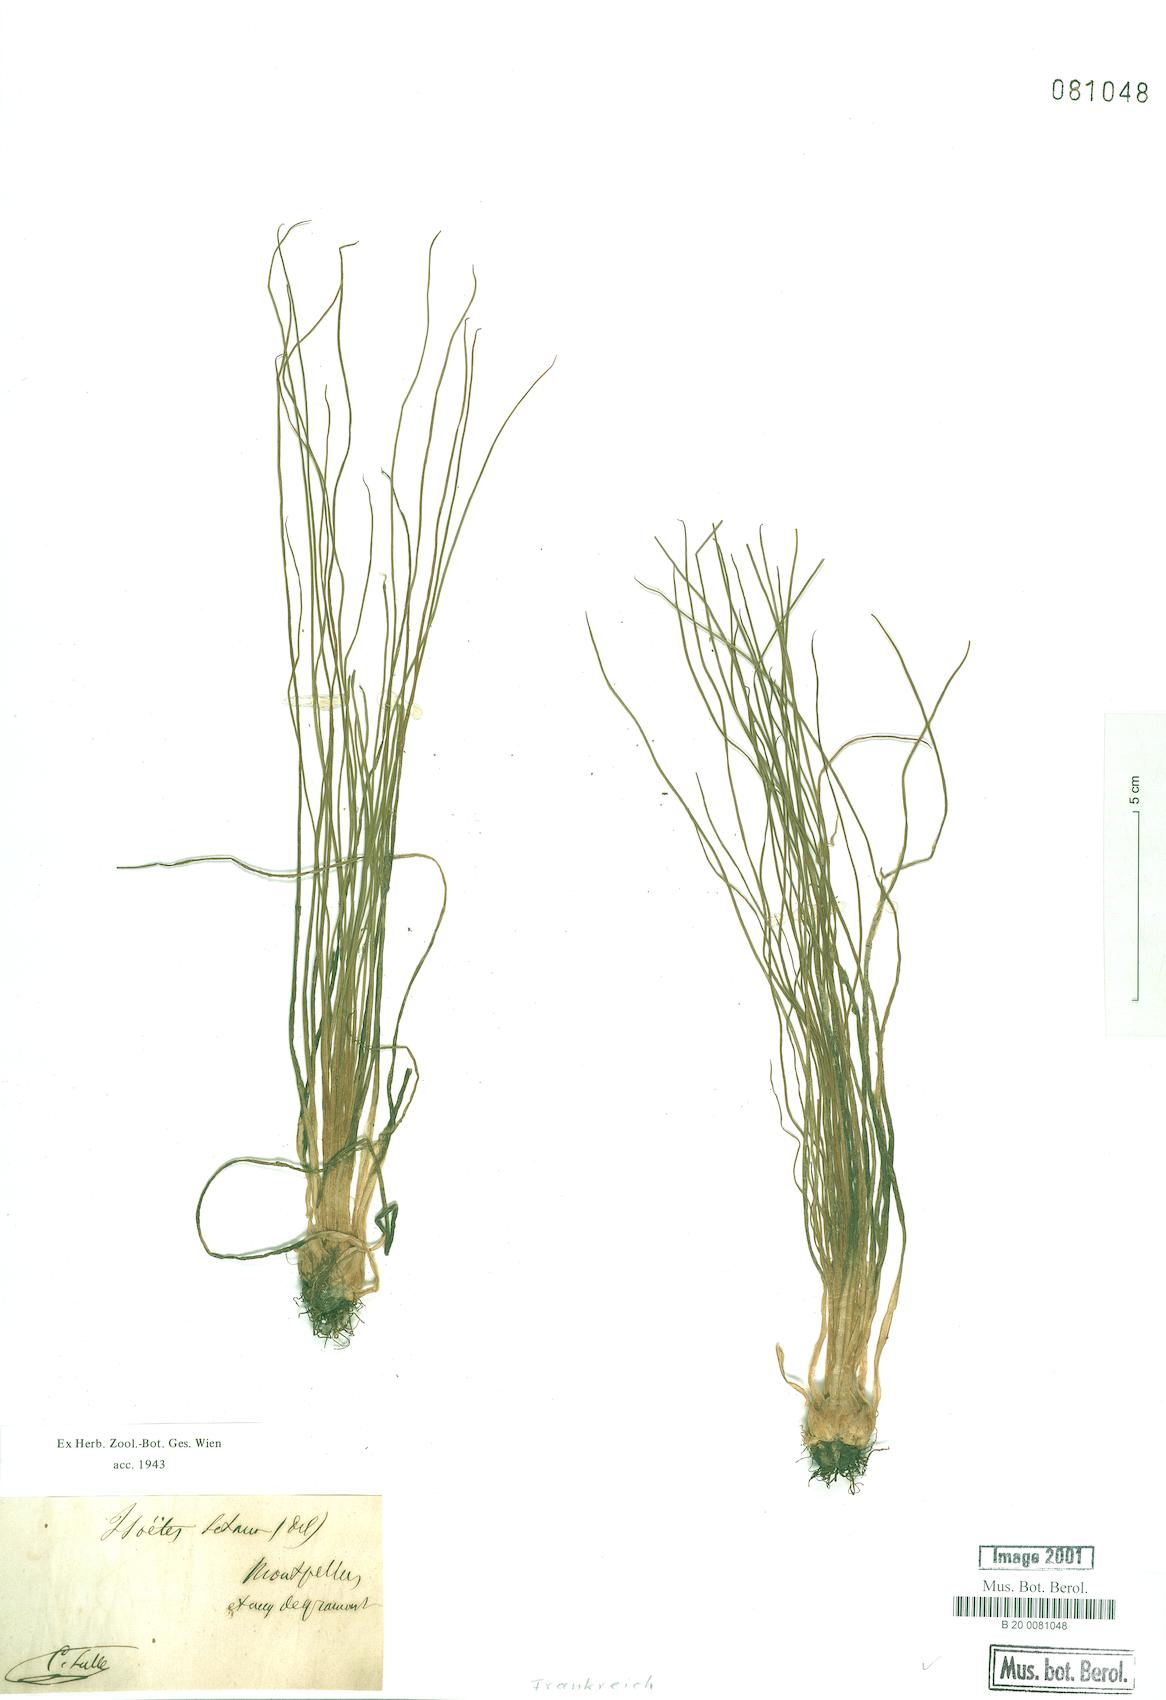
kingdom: Plantae
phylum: Tracheophyta
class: Lycopodiopsida
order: Isoetales
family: Isoetaceae
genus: Isoetes
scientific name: Isoetes lacustris
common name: Common quillwort
